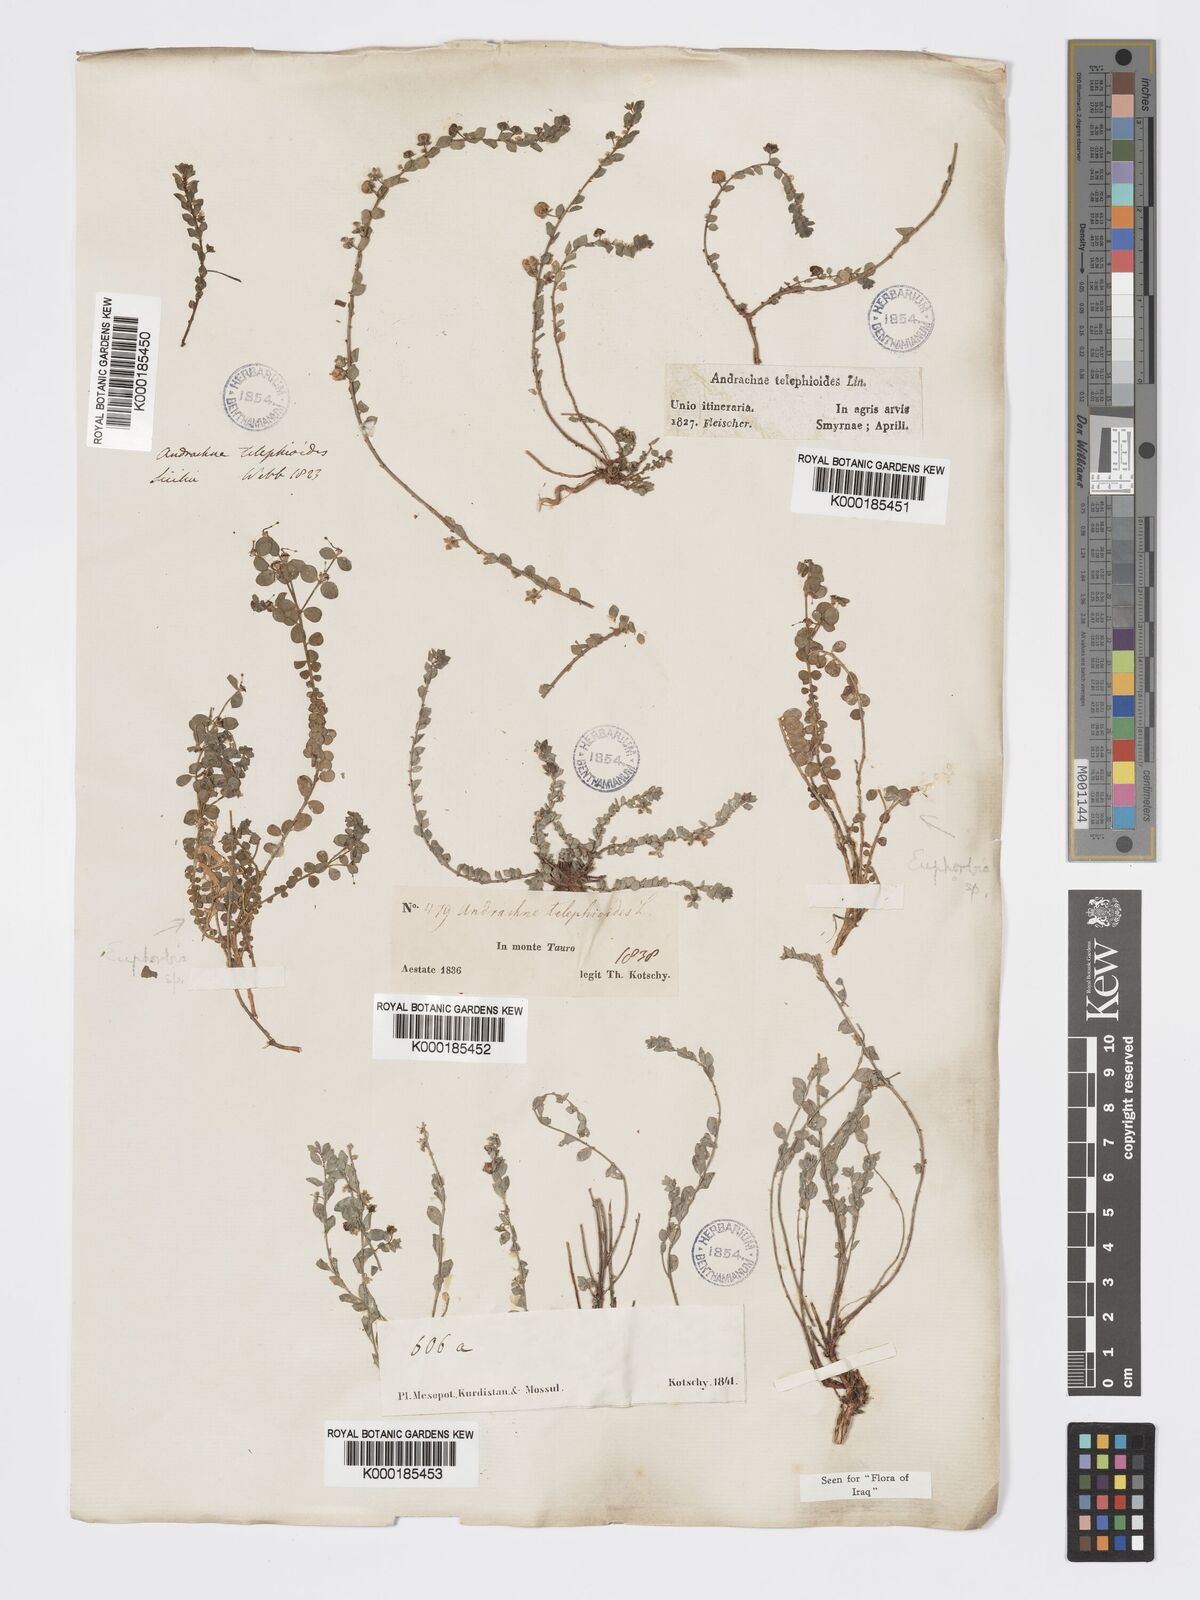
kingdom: Plantae
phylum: Tracheophyta
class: Magnoliopsida
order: Malpighiales
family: Phyllanthaceae
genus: Andrachne
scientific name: Andrachne telephioides
